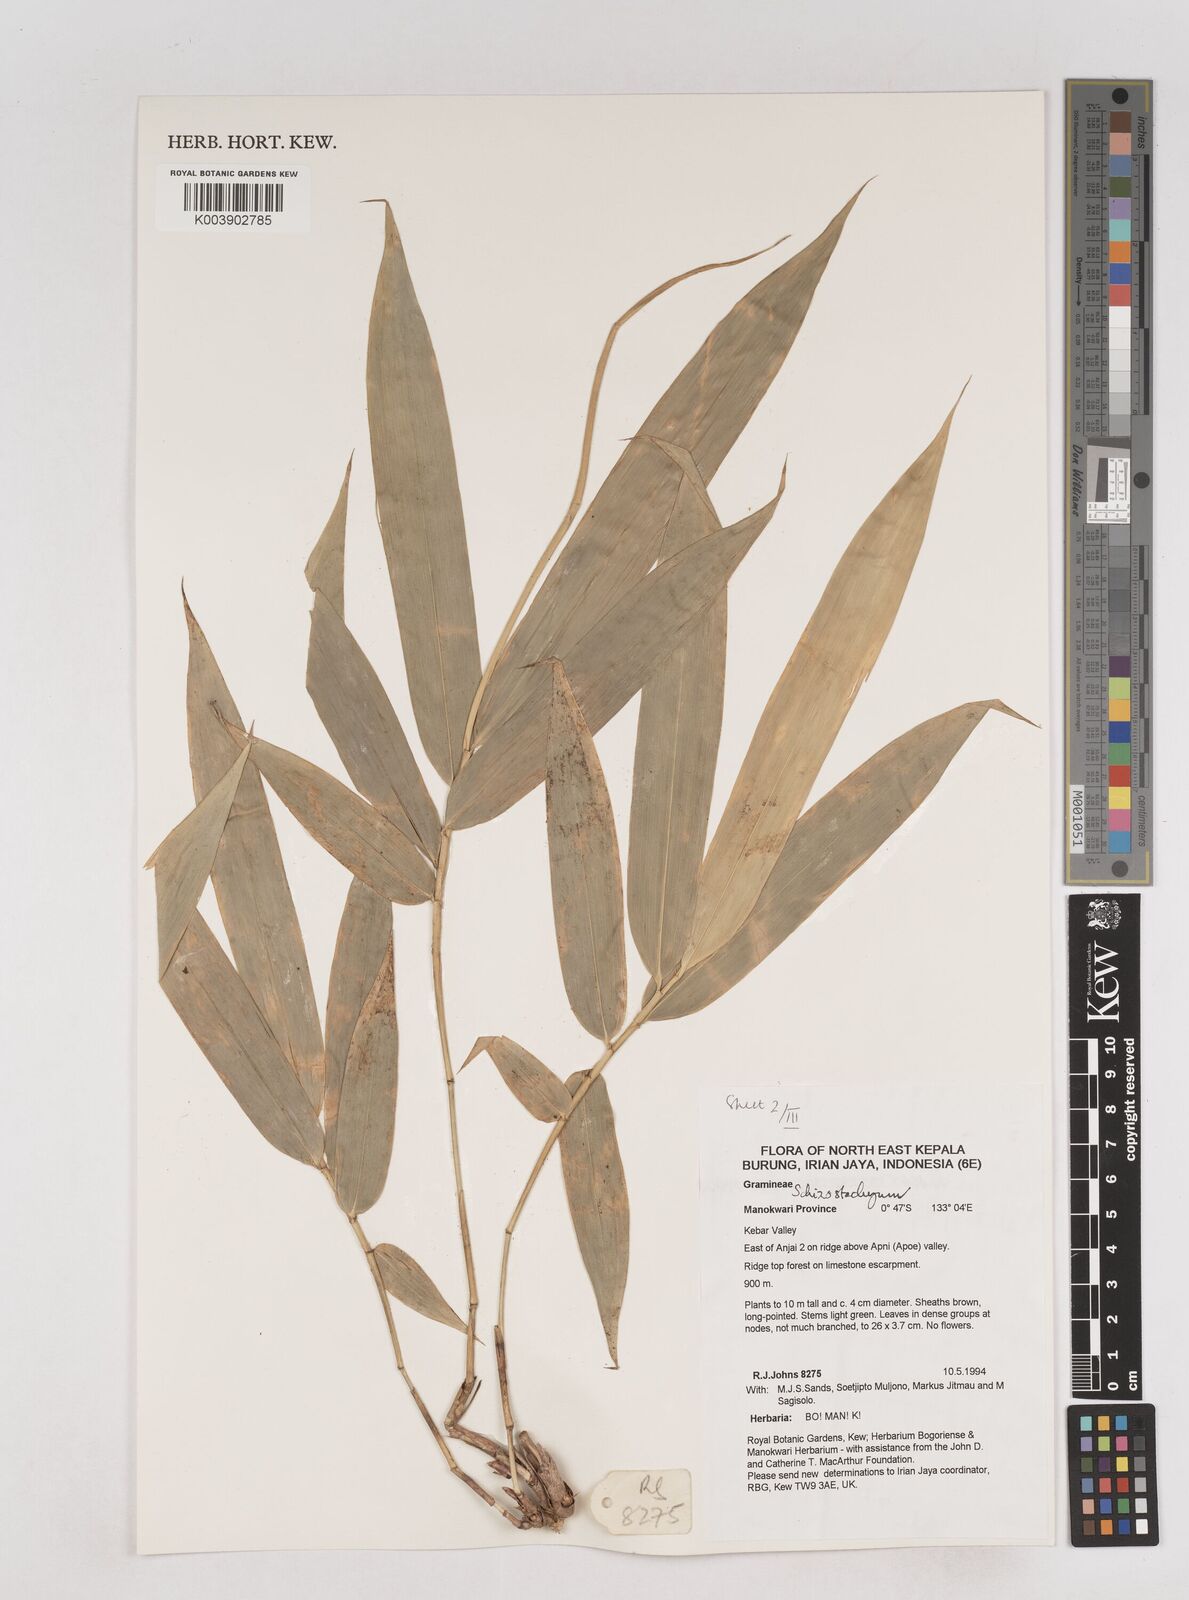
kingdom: Plantae
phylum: Tracheophyta
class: Liliopsida
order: Poales
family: Poaceae
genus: Schizostachyum
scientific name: Schizostachyum
